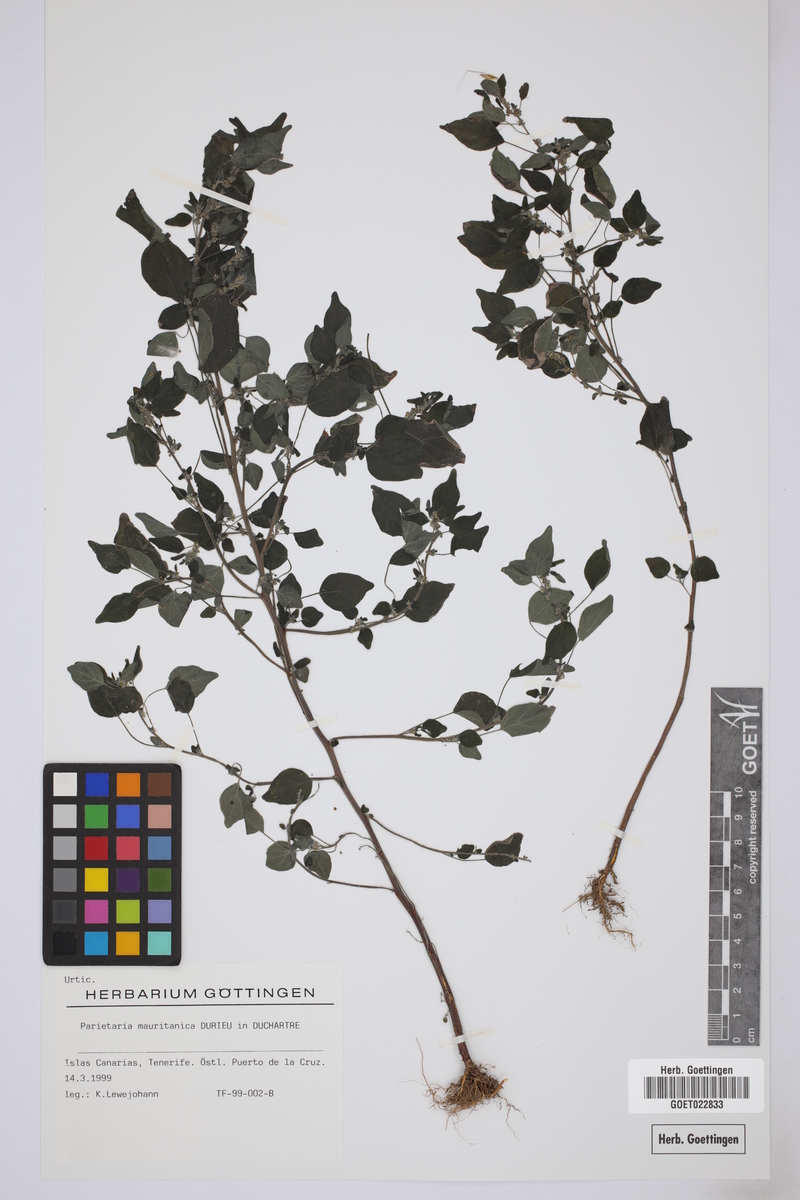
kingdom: Plantae
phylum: Tracheophyta
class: Magnoliopsida
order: Rosales
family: Urticaceae
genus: Parietaria
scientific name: Parietaria mauritanica
